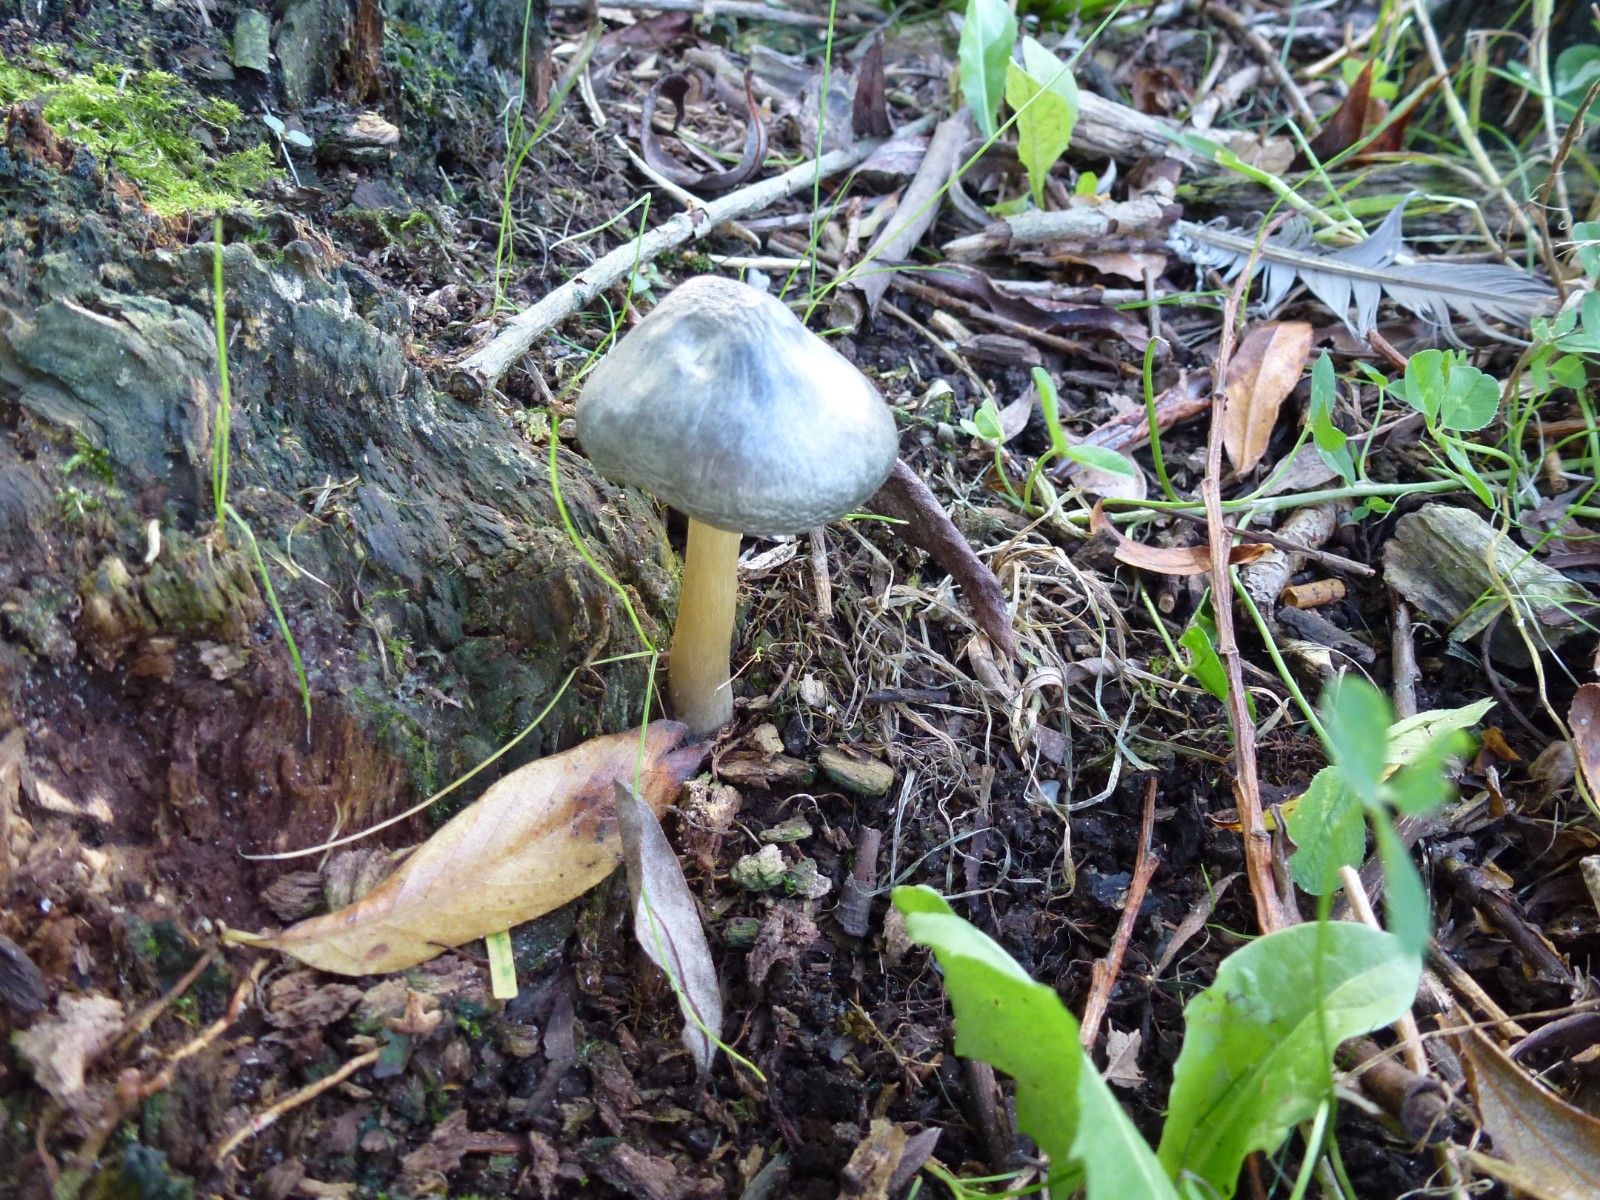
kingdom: Fungi
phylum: Basidiomycota
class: Agaricomycetes
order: Agaricales
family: Pluteaceae
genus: Pluteus
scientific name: Pluteus salicinus
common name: stiv skærmhat
